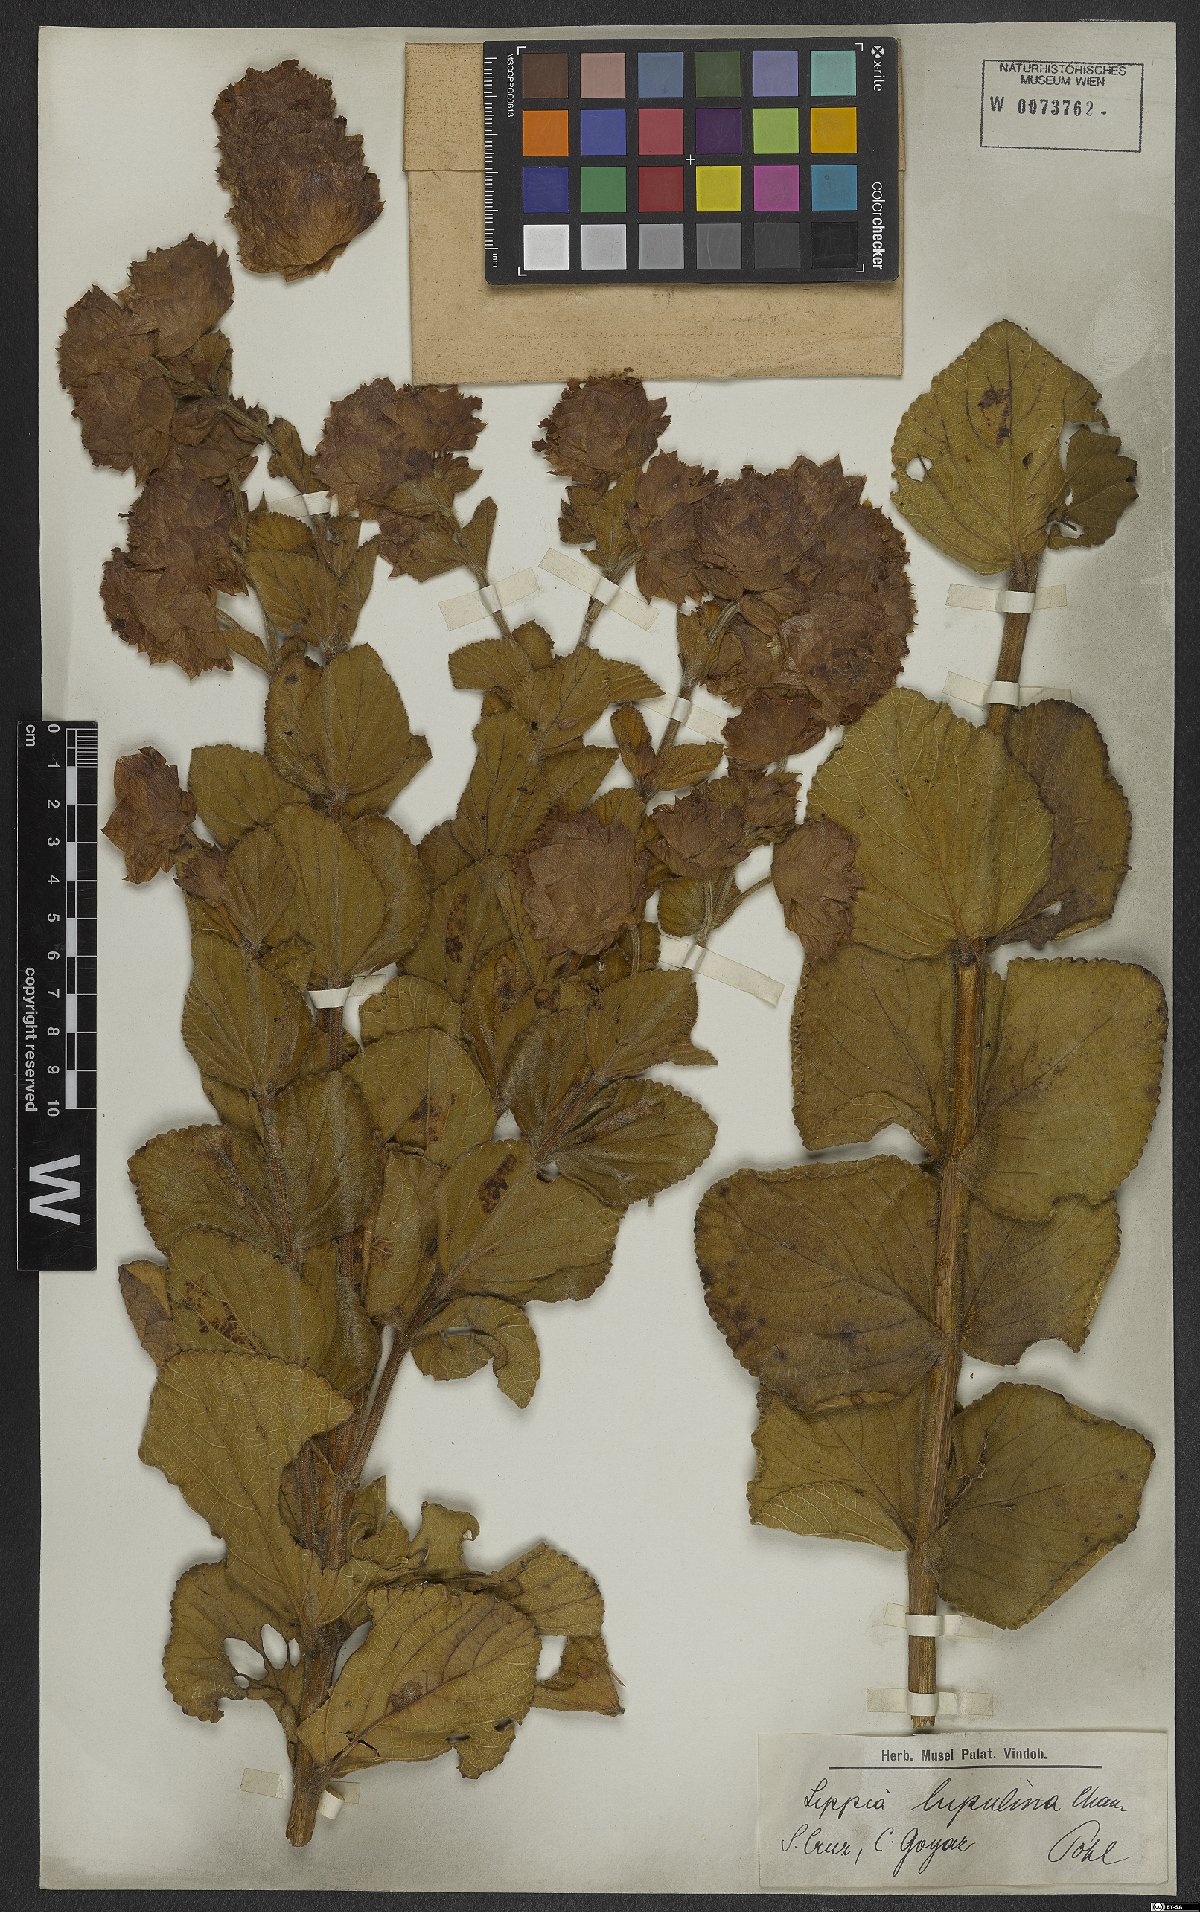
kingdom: Plantae
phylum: Tracheophyta
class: Magnoliopsida
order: Lamiales
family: Verbenaceae
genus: Lippia
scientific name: Lippia lupulina
